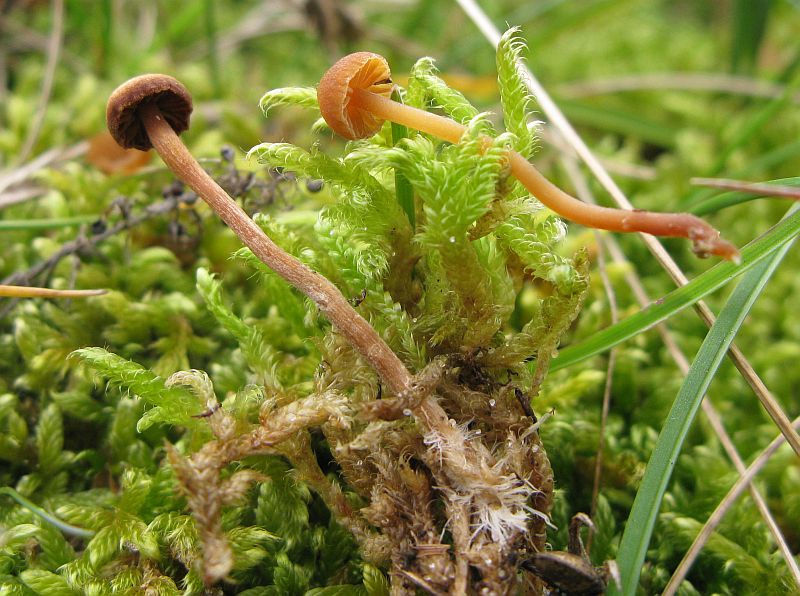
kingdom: Fungi
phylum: Basidiomycota
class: Agaricomycetes
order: Agaricales
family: Hymenogastraceae
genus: Galerina
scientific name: Galerina vittiformis
